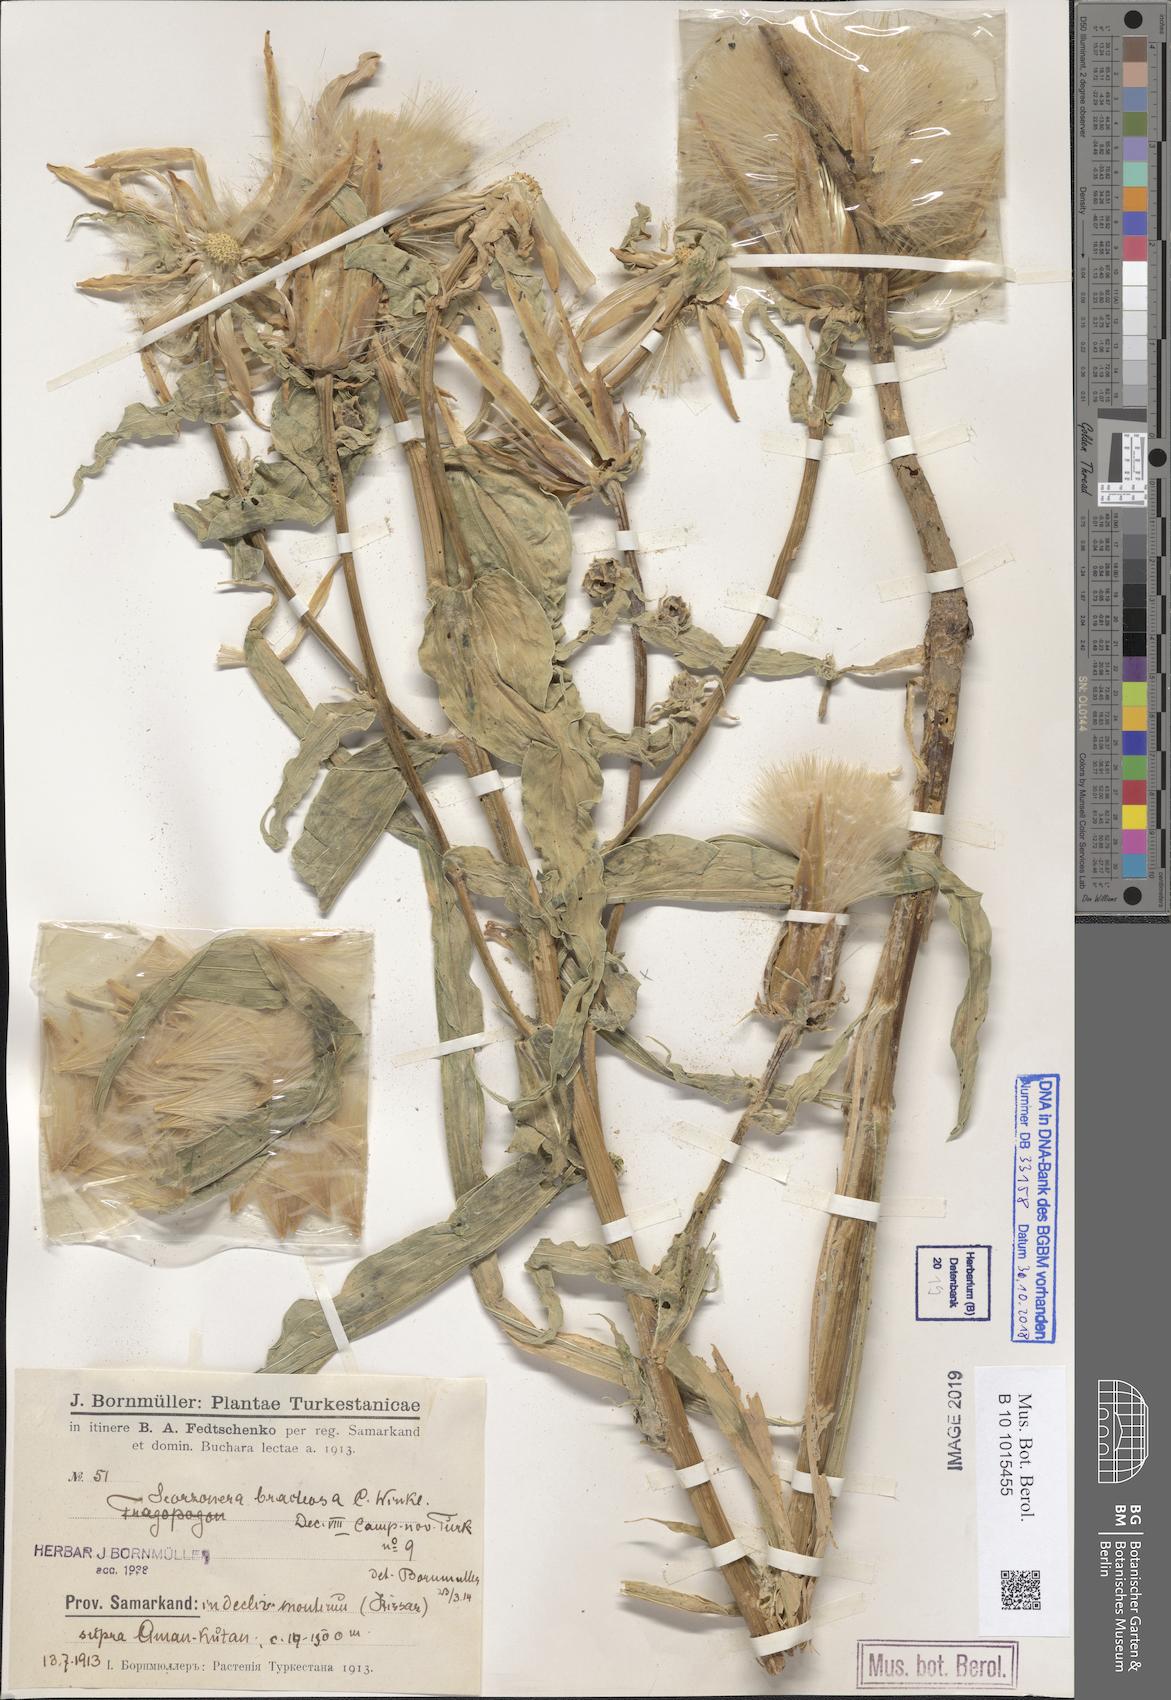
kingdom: Plantae
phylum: Tracheophyta
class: Magnoliopsida
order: Asterales
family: Asteraceae
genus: Scorzonera
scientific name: Scorzonera bracteosa
